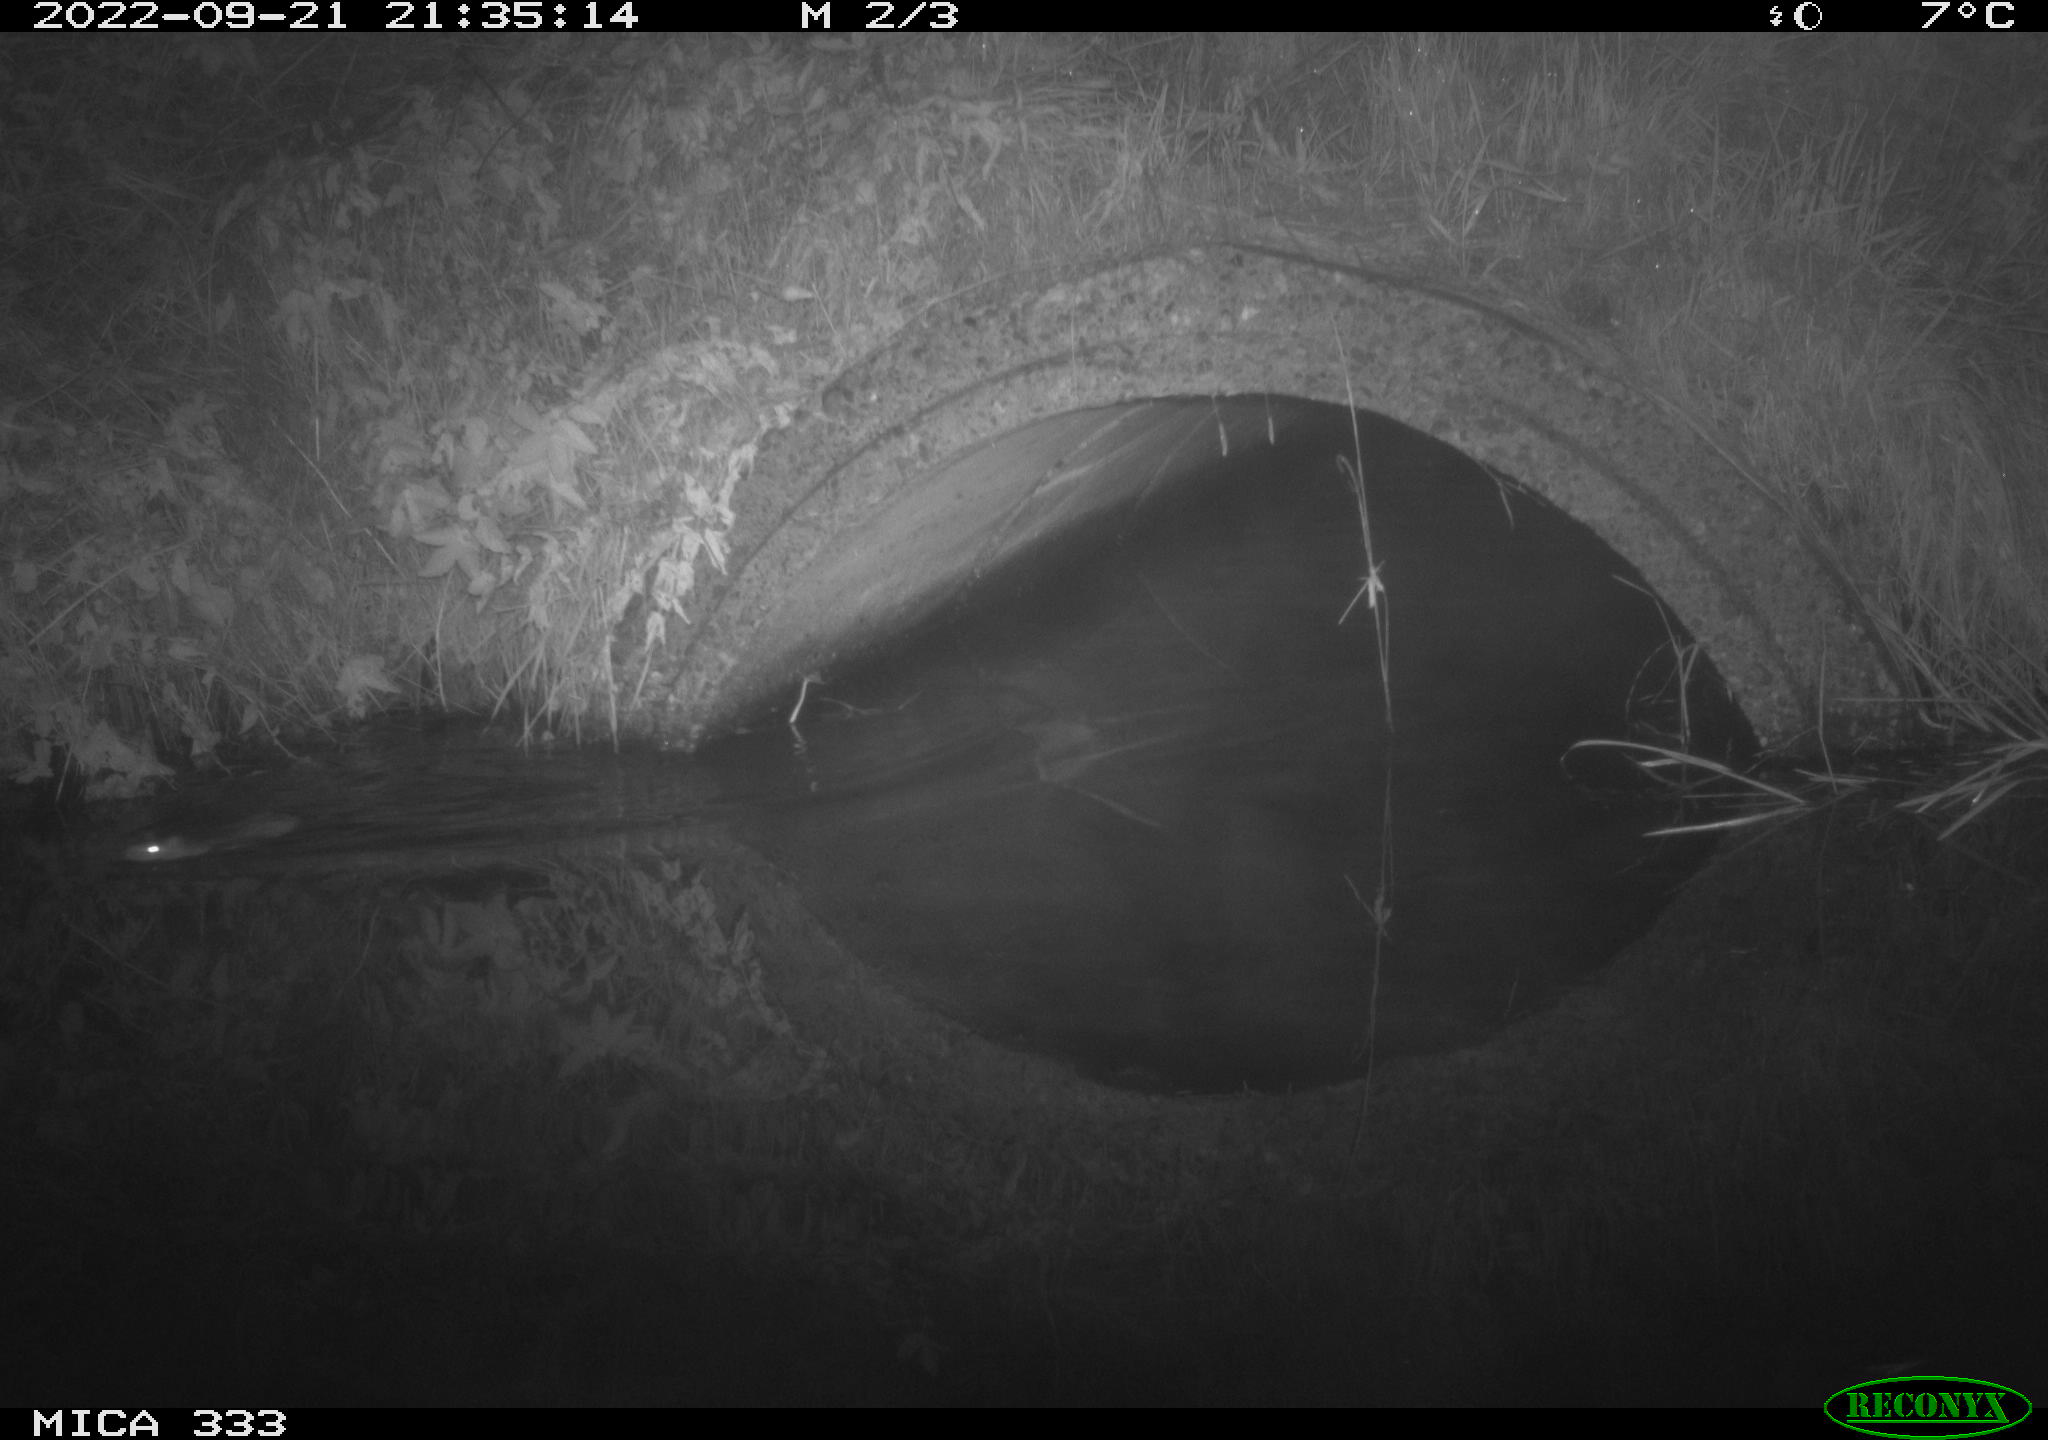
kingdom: Animalia
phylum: Chordata
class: Mammalia
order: Rodentia
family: Muridae
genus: Rattus
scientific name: Rattus norvegicus
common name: Brown rat
